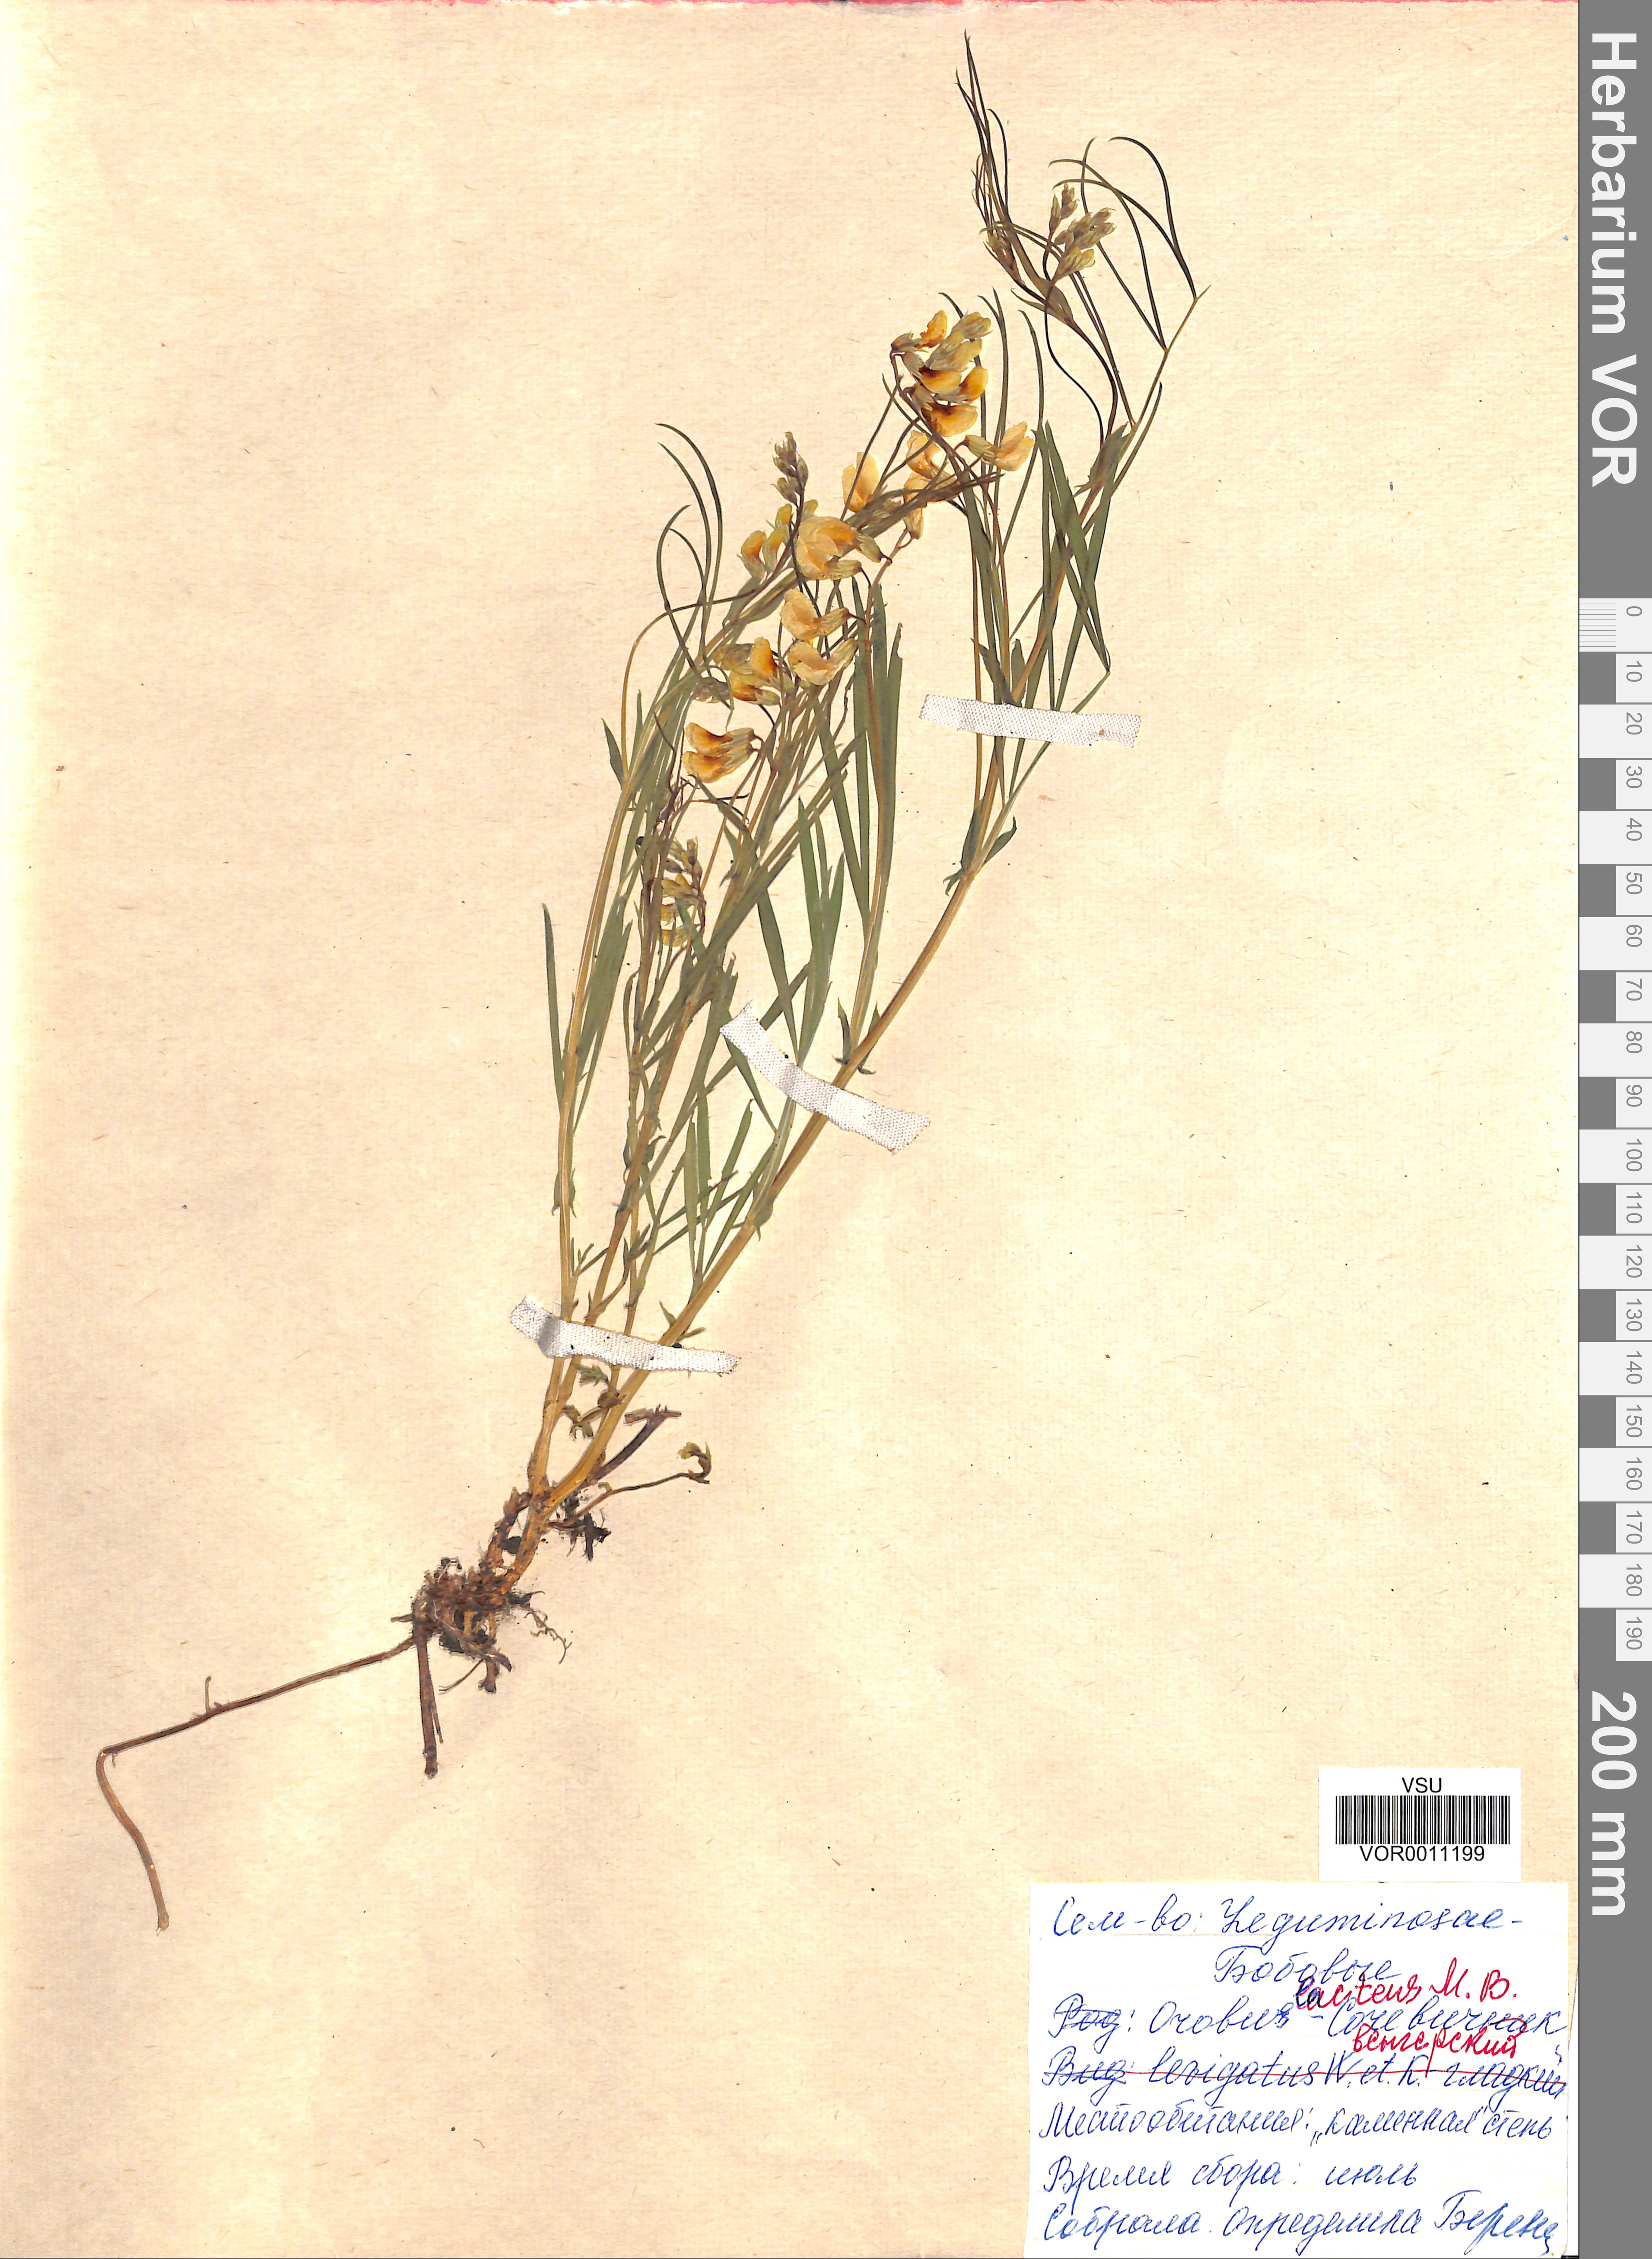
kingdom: Plantae
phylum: Tracheophyta
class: Magnoliopsida
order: Fabales
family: Fabaceae
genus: Lathyrus
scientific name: Lathyrus pannonicus
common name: Pea
